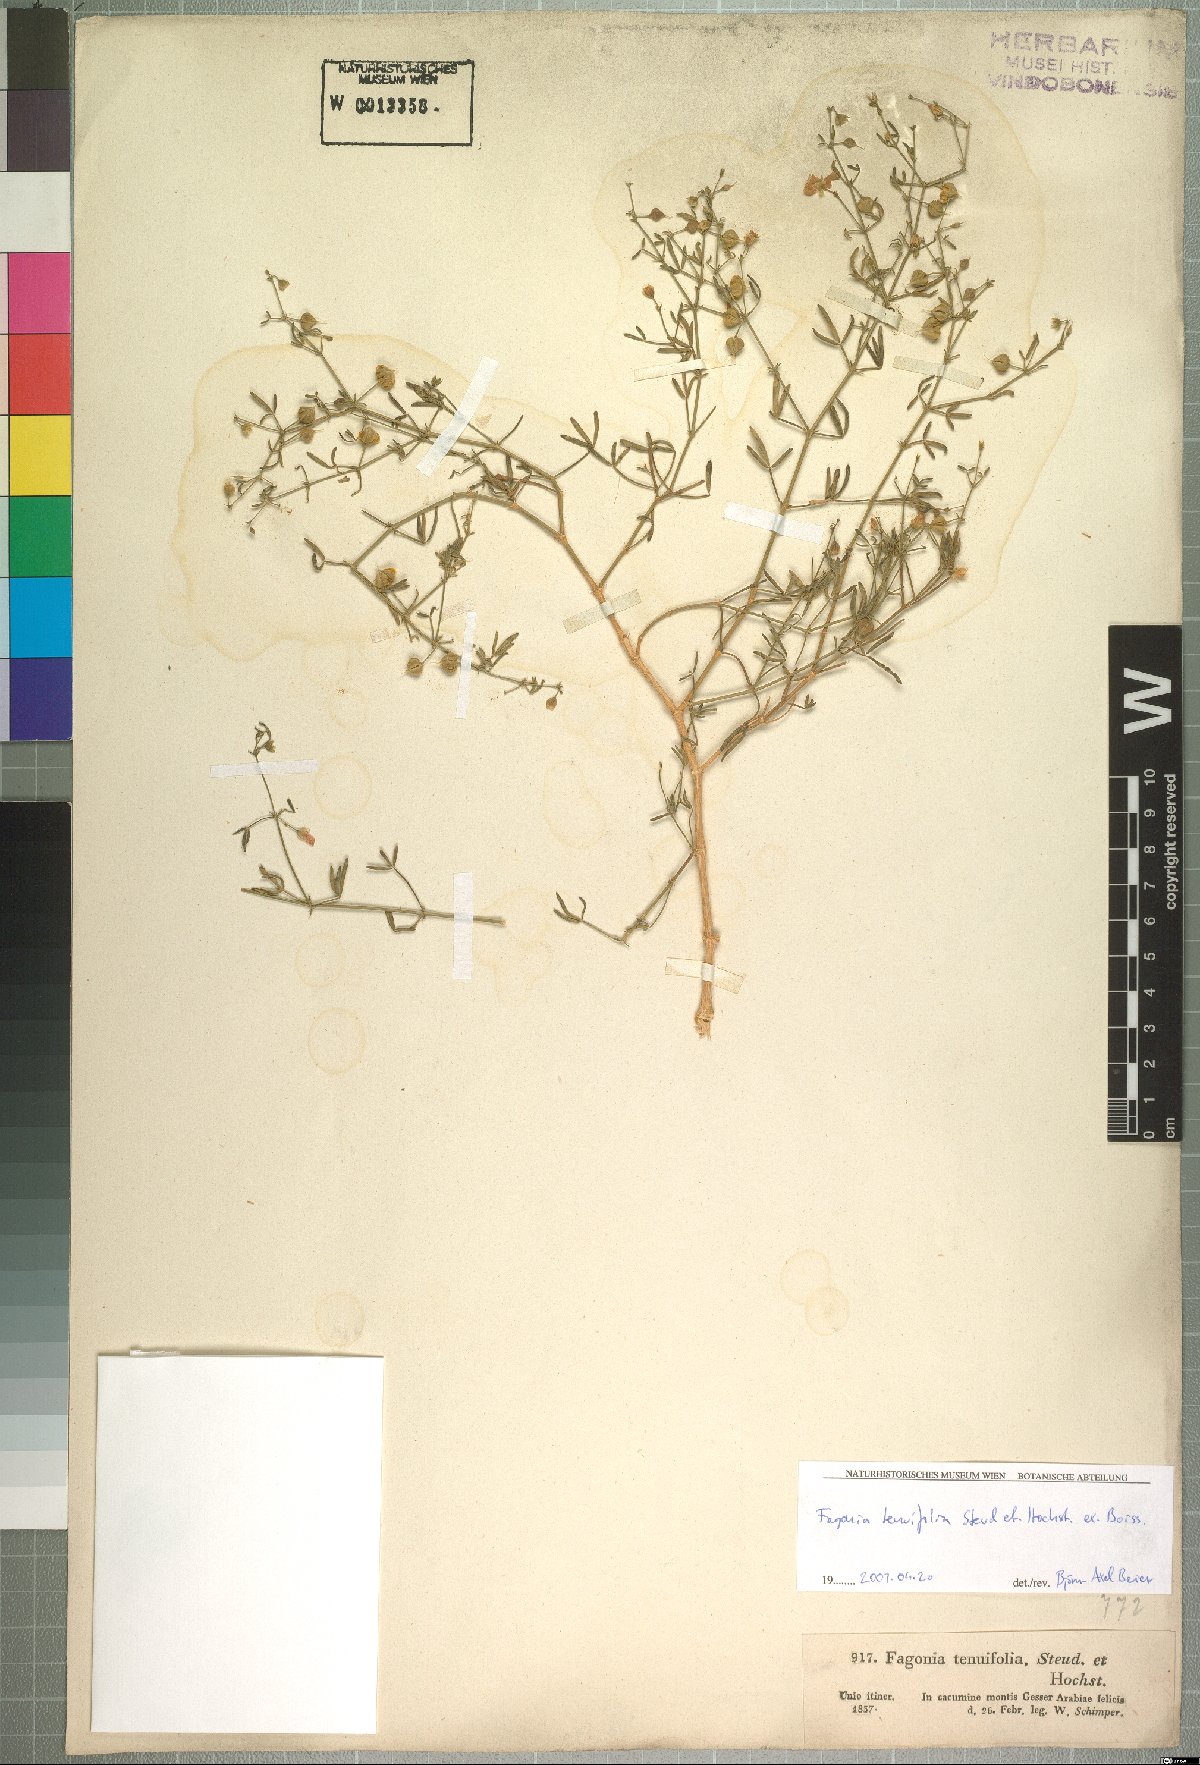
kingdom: Plantae
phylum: Tracheophyta
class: Magnoliopsida
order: Zygophyllales
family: Zygophyllaceae
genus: Fagonia
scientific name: Fagonia orientalis
